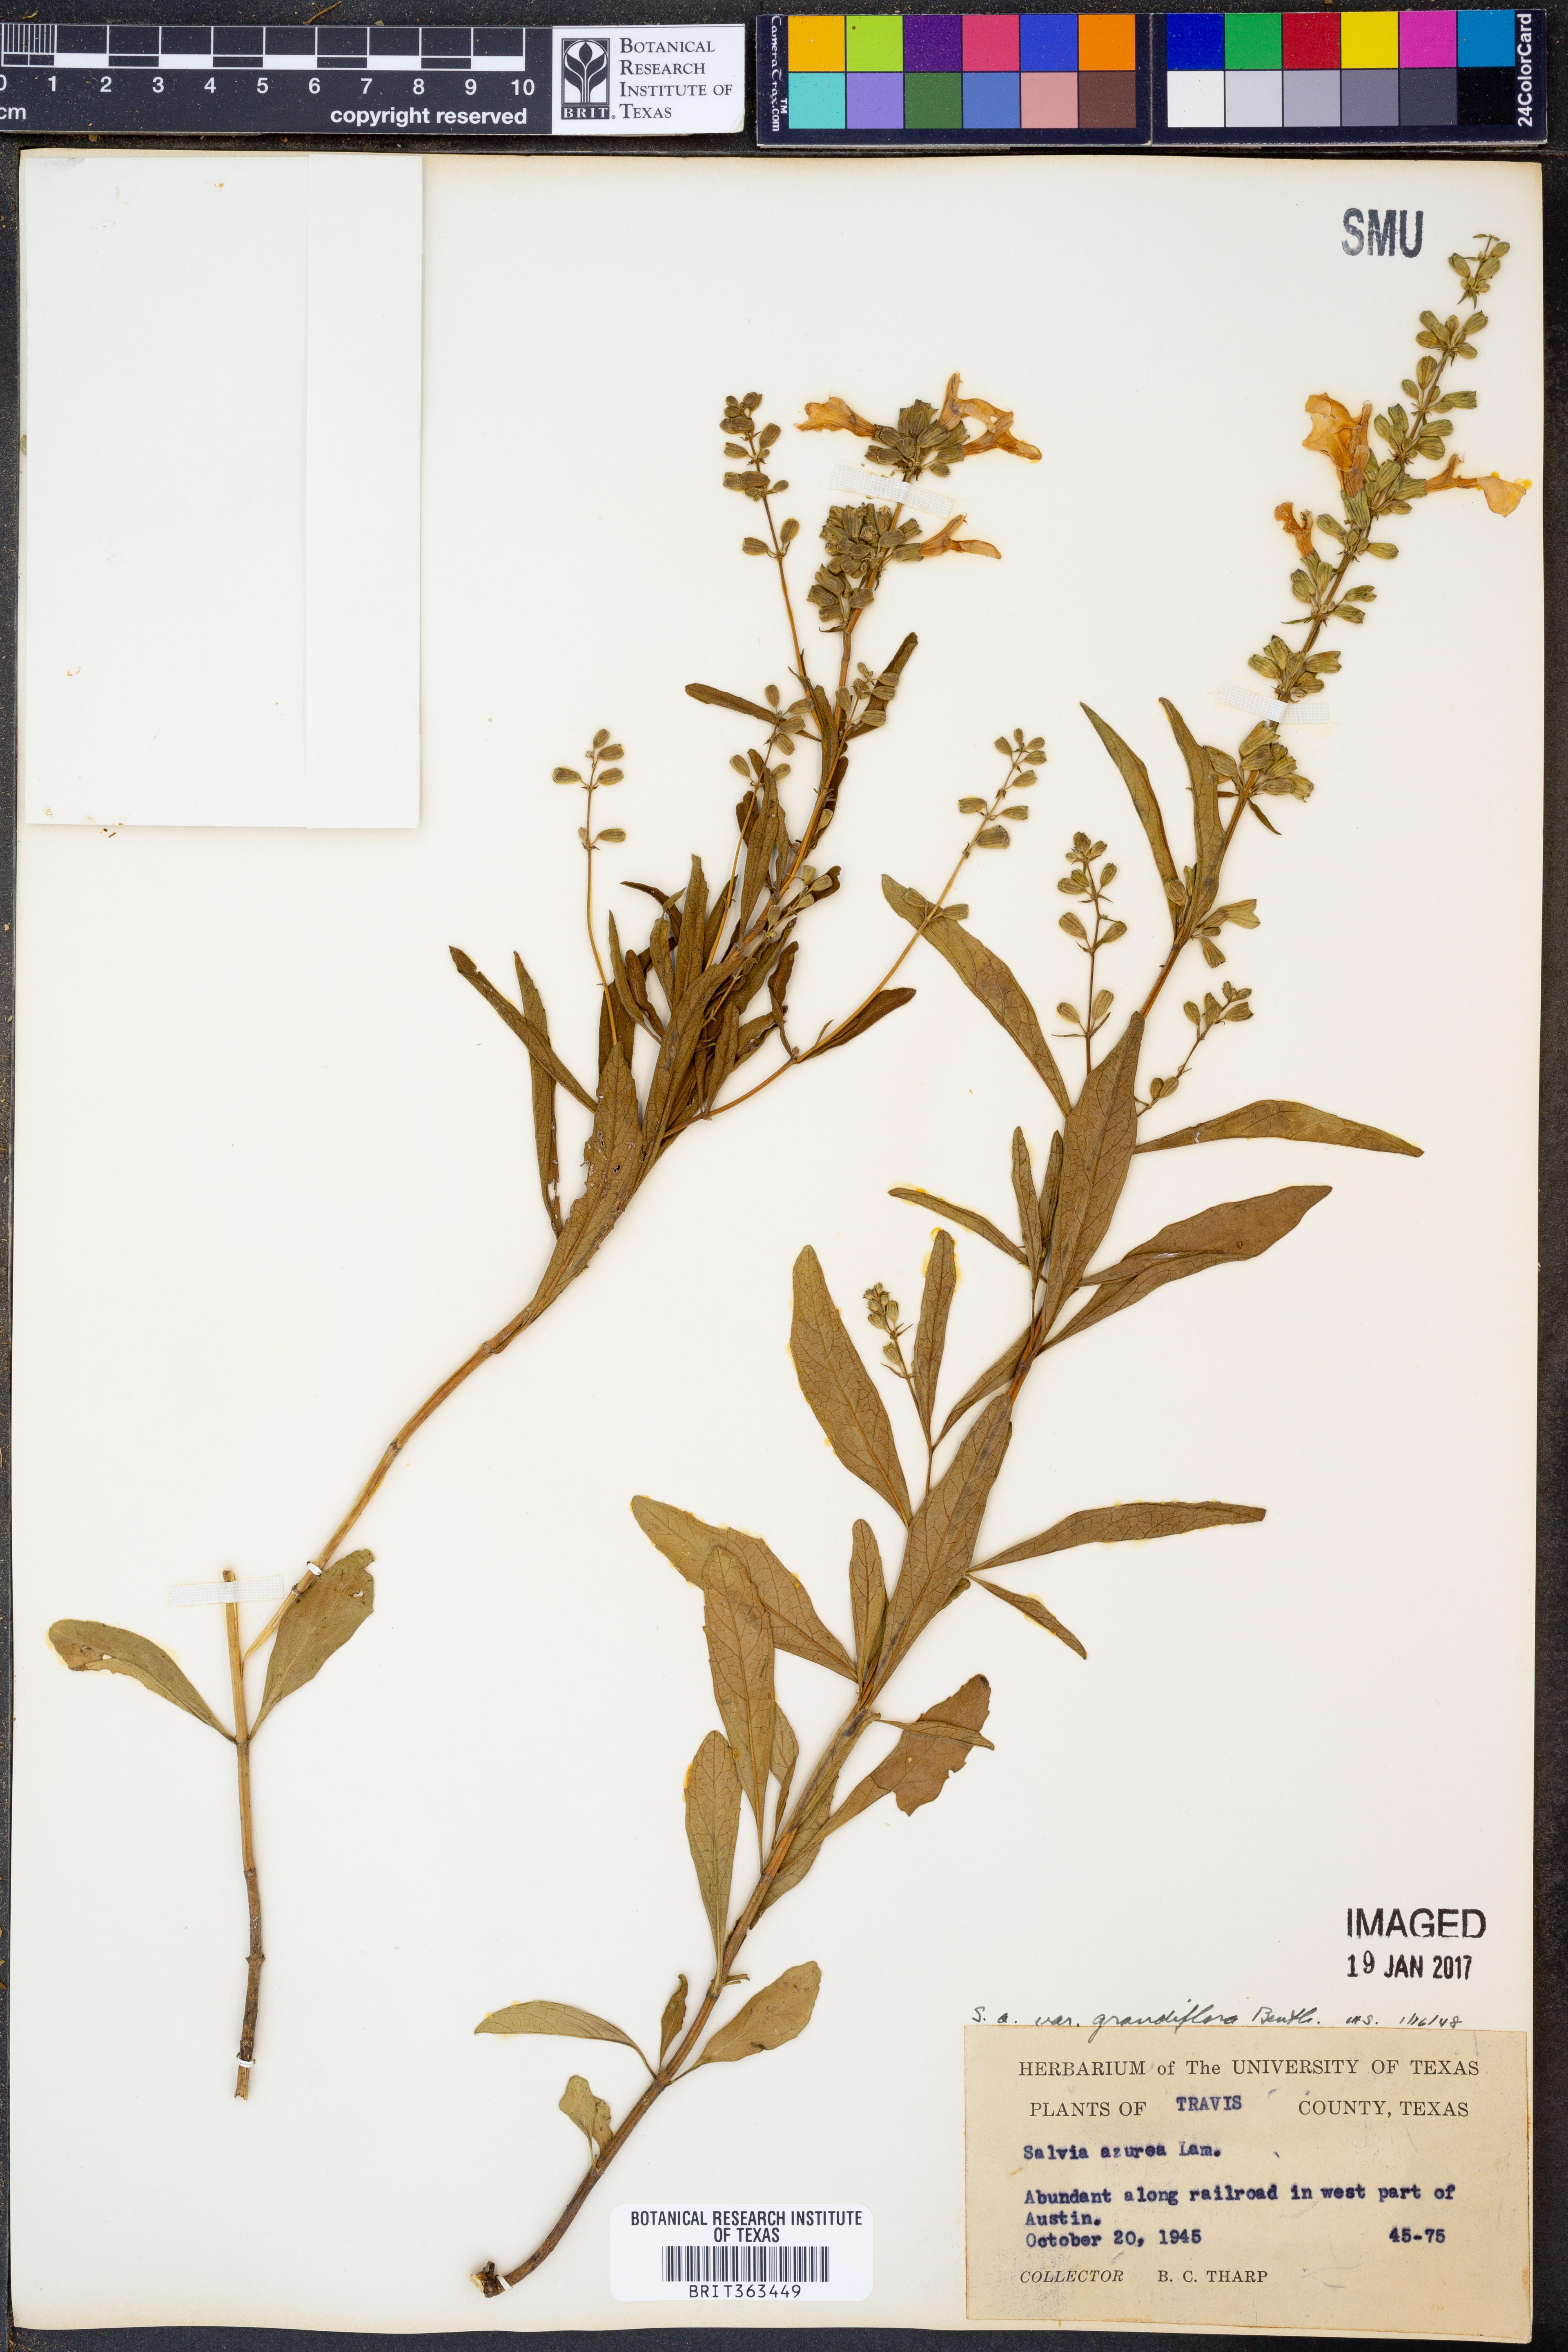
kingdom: Plantae
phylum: Tracheophyta
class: Magnoliopsida
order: Lamiales
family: Lamiaceae
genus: Salvia
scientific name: Salvia azurea
